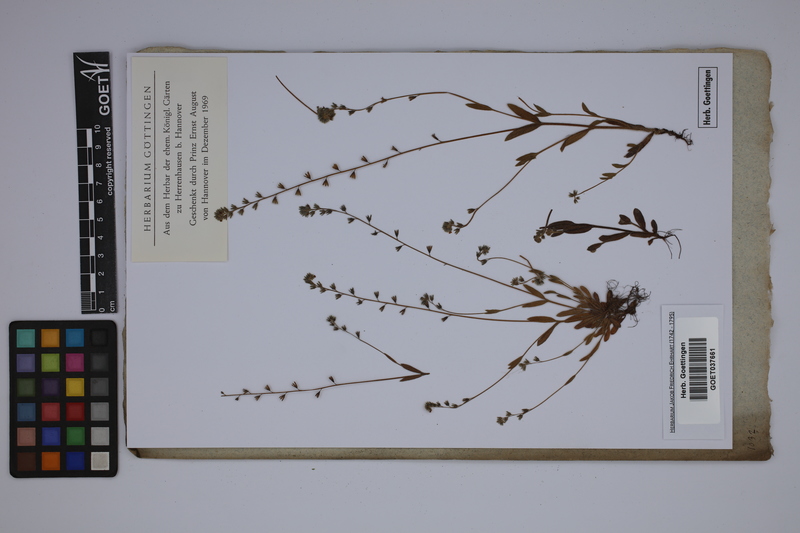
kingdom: Plantae
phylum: Tracheophyta
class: Magnoliopsida
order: Boraginales
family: Boraginaceae
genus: Myosotis
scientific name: Myosotis scorpioides
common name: Water forget-me-not
